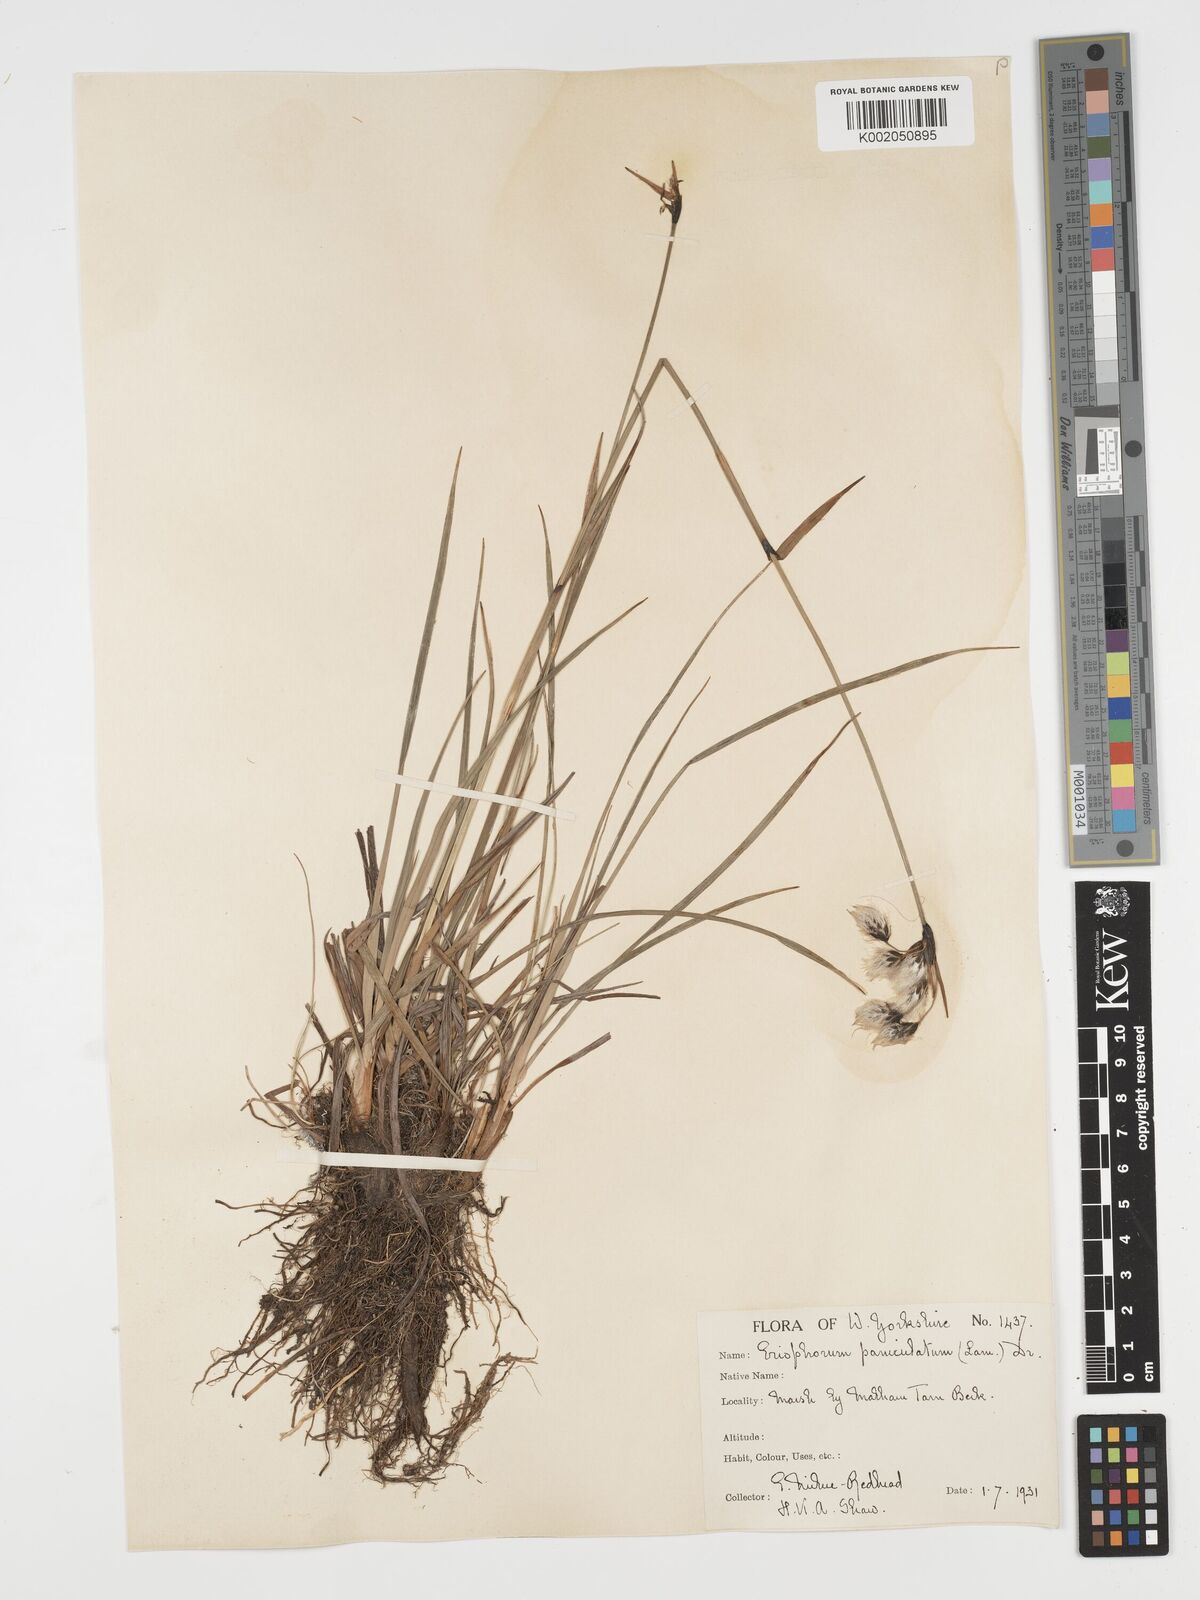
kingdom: Plantae
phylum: Tracheophyta
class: Liliopsida
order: Poales
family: Cyperaceae
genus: Eriophorum
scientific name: Eriophorum angustifolium
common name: Common cottongrass
